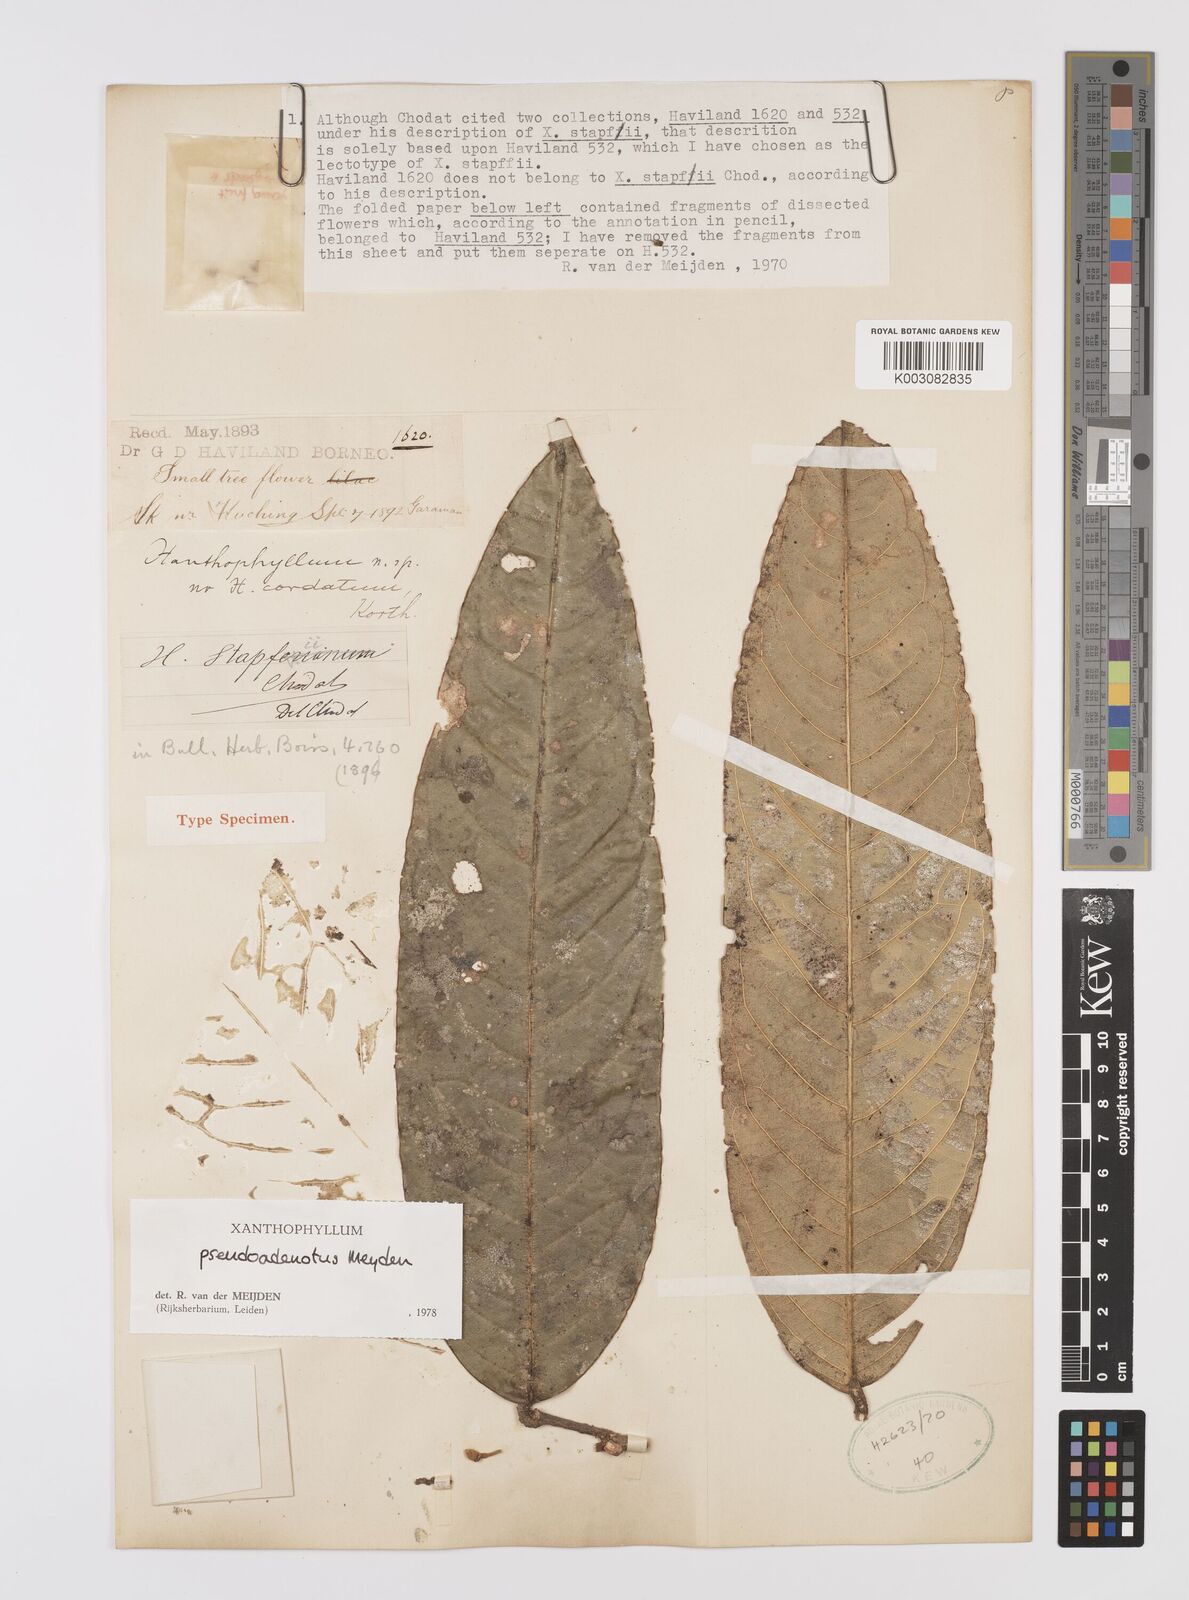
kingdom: Plantae
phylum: Tracheophyta
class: Magnoliopsida
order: Fabales
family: Polygalaceae
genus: Xanthophyllum
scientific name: Xanthophyllum pseudoadenotus
